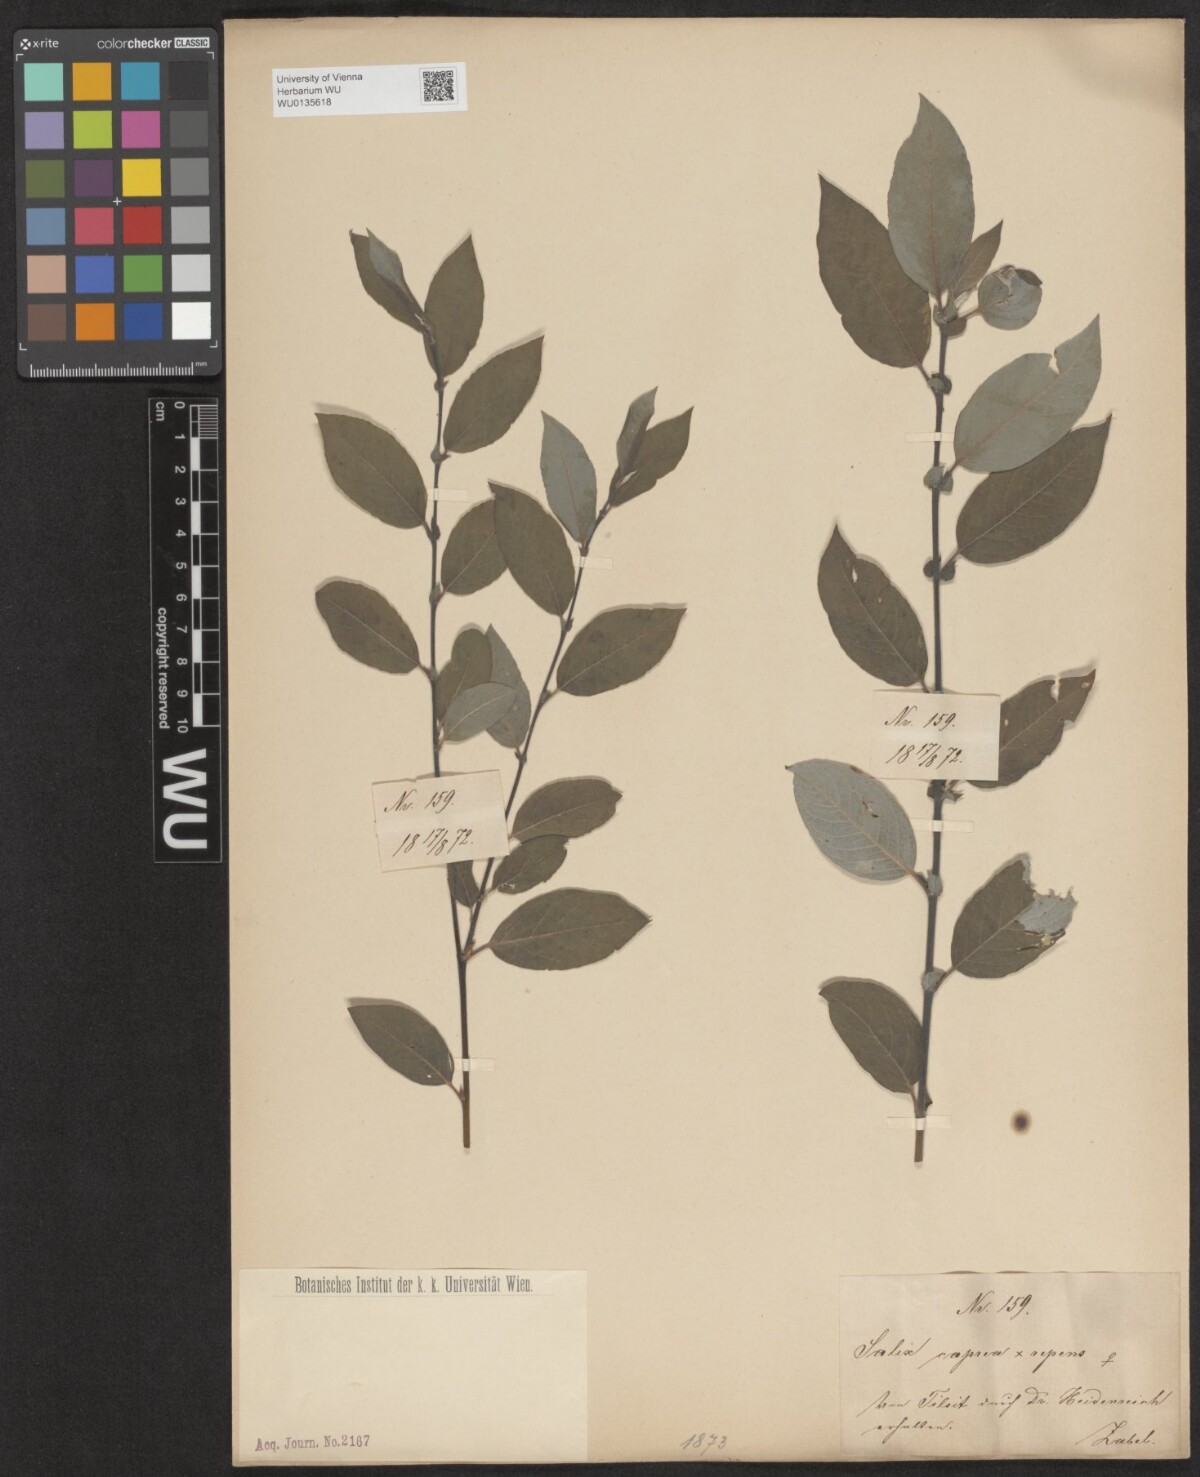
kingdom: Plantae
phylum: Tracheophyta
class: Magnoliopsida
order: Malpighiales
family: Salicaceae
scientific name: Salicaceae
